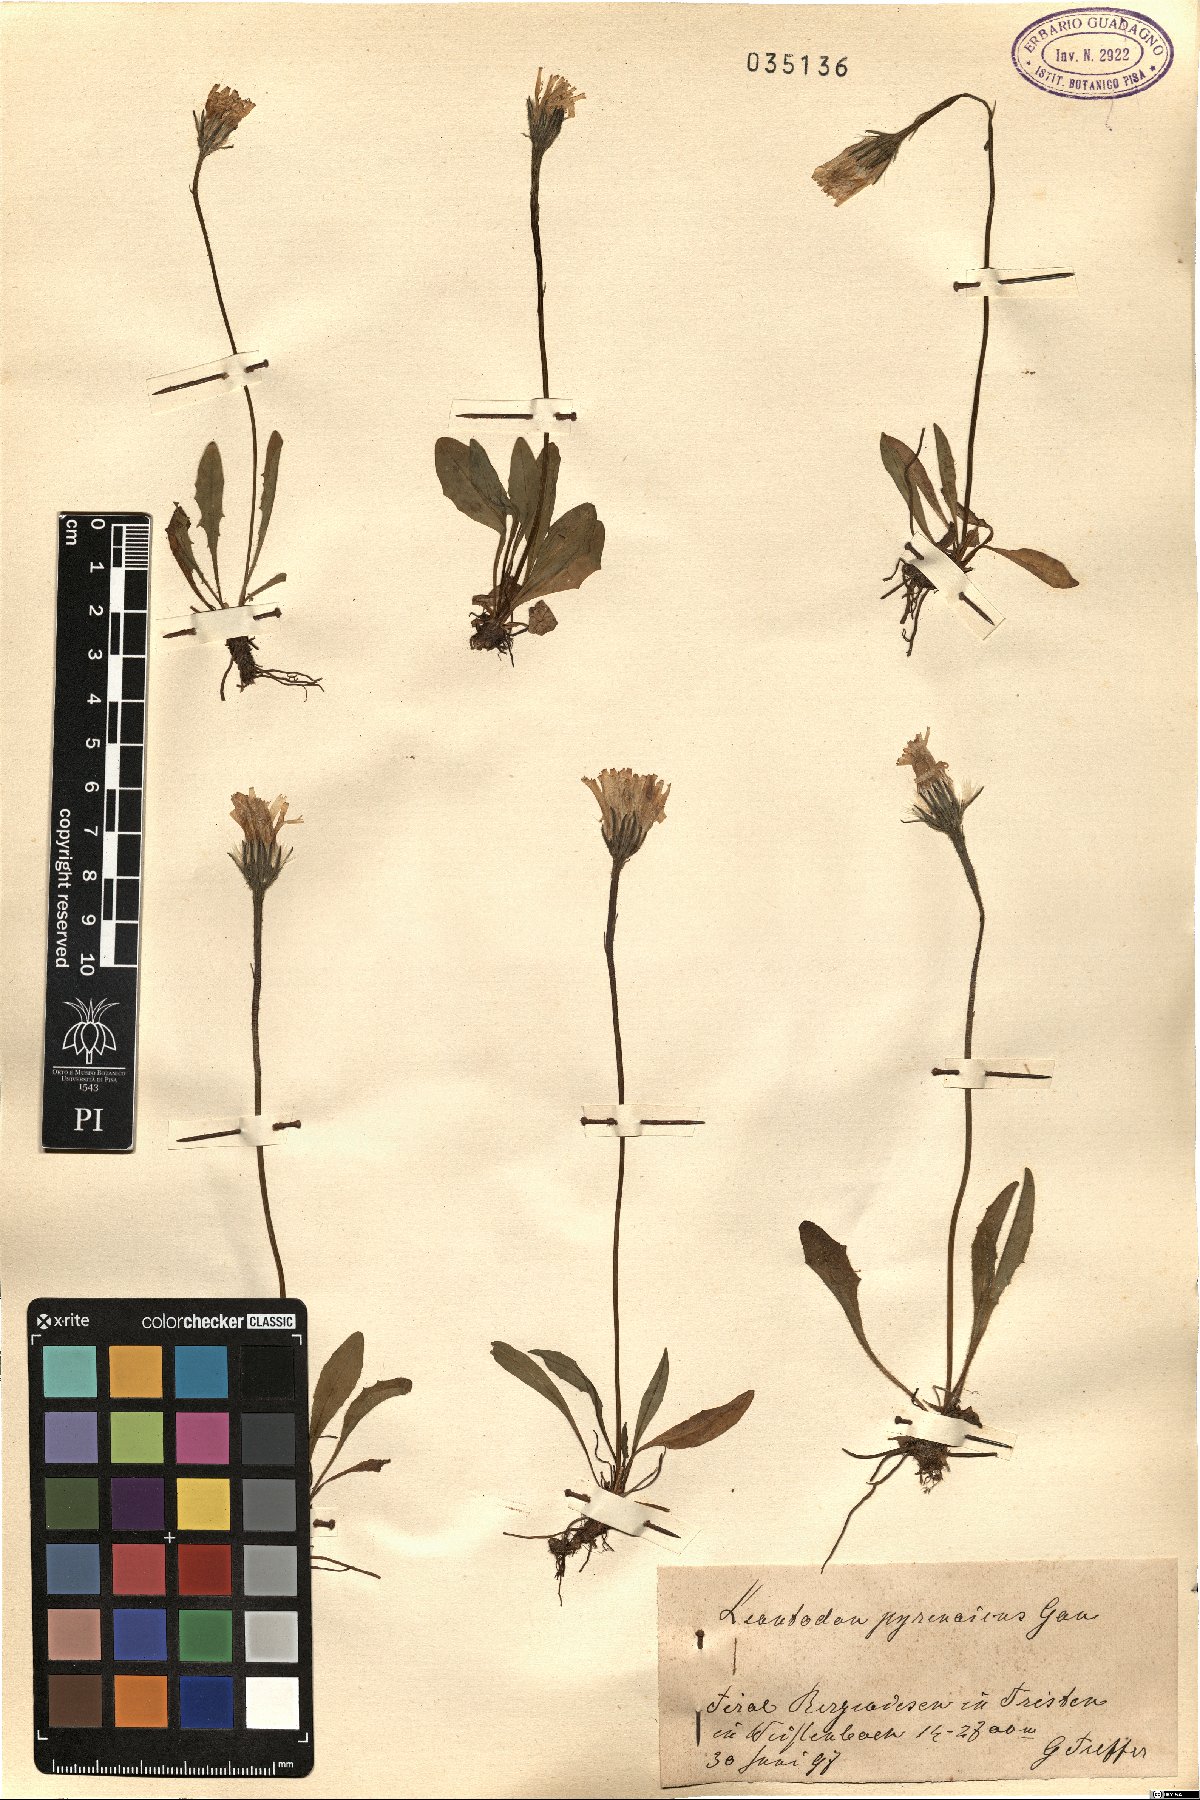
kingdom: Plantae
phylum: Tracheophyta
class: Magnoliopsida
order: Asterales
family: Asteraceae
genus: Scorzoneroides
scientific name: Scorzoneroides pyrenaica
